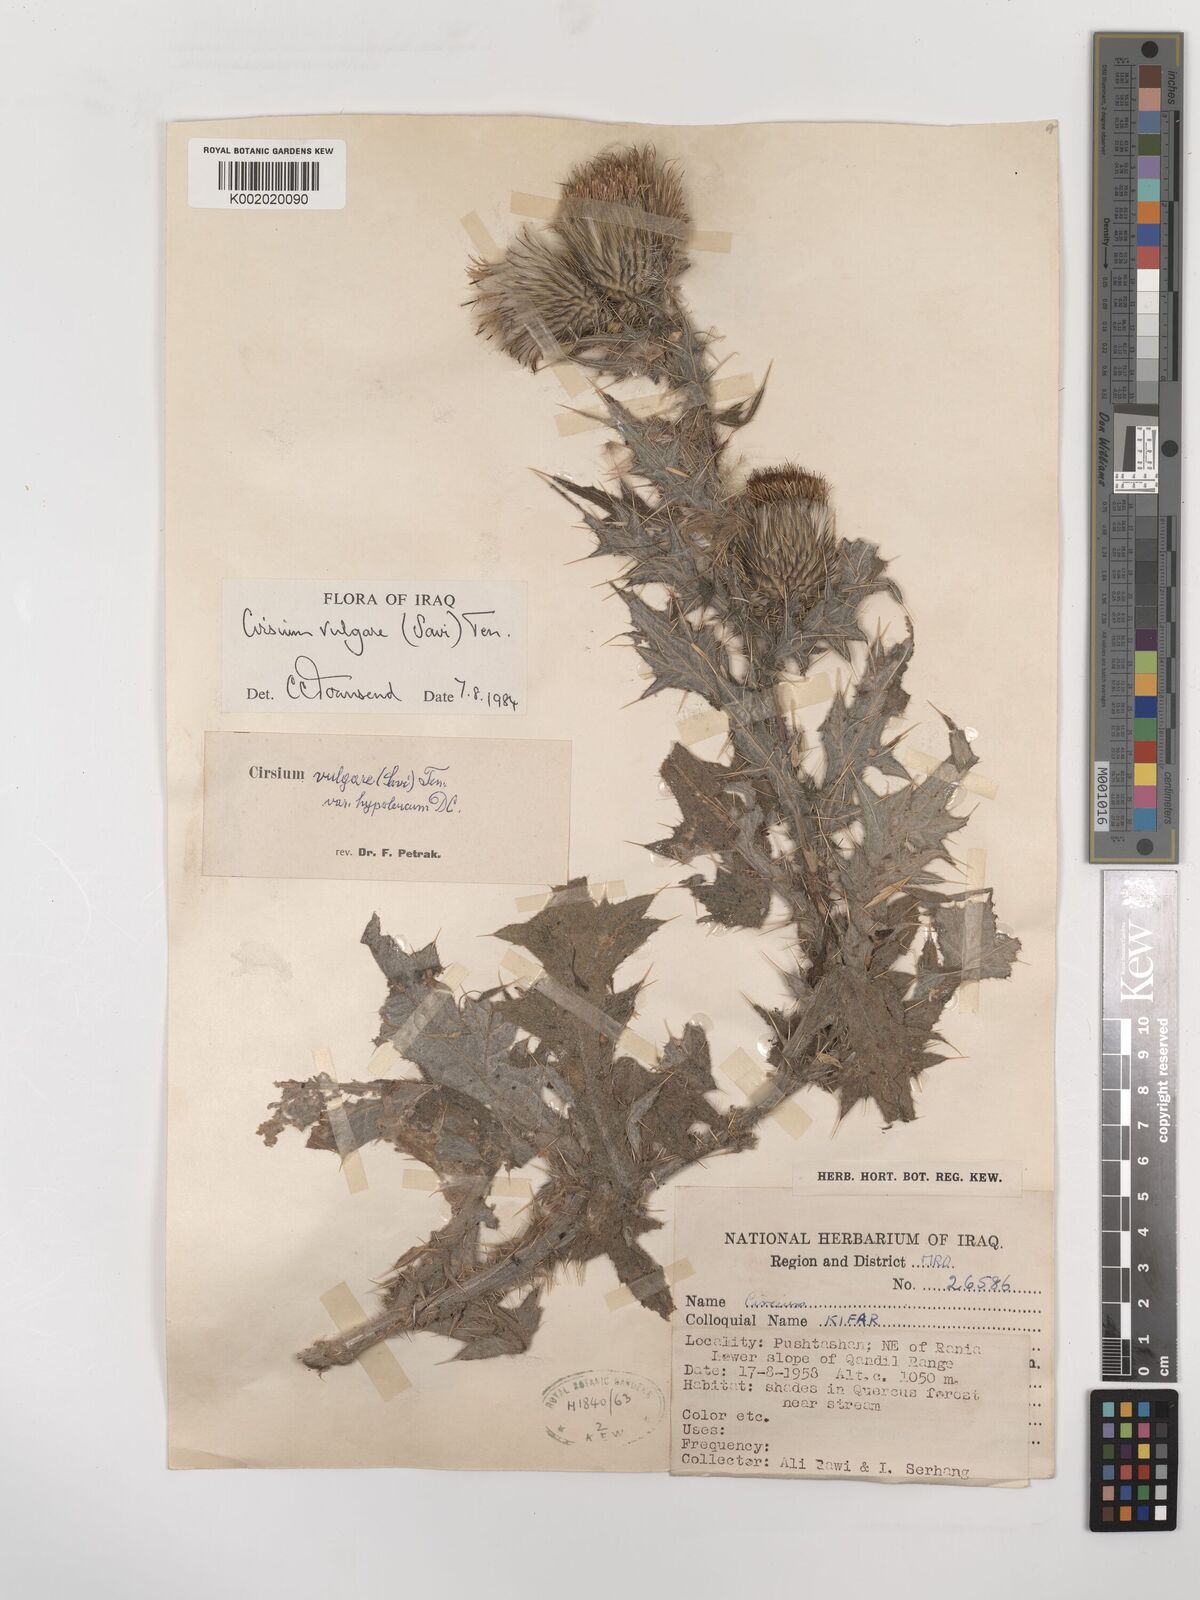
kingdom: Plantae
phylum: Tracheophyta
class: Magnoliopsida
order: Asterales
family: Asteraceae
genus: Cirsium
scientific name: Cirsium vulgare
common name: Bull thistle
